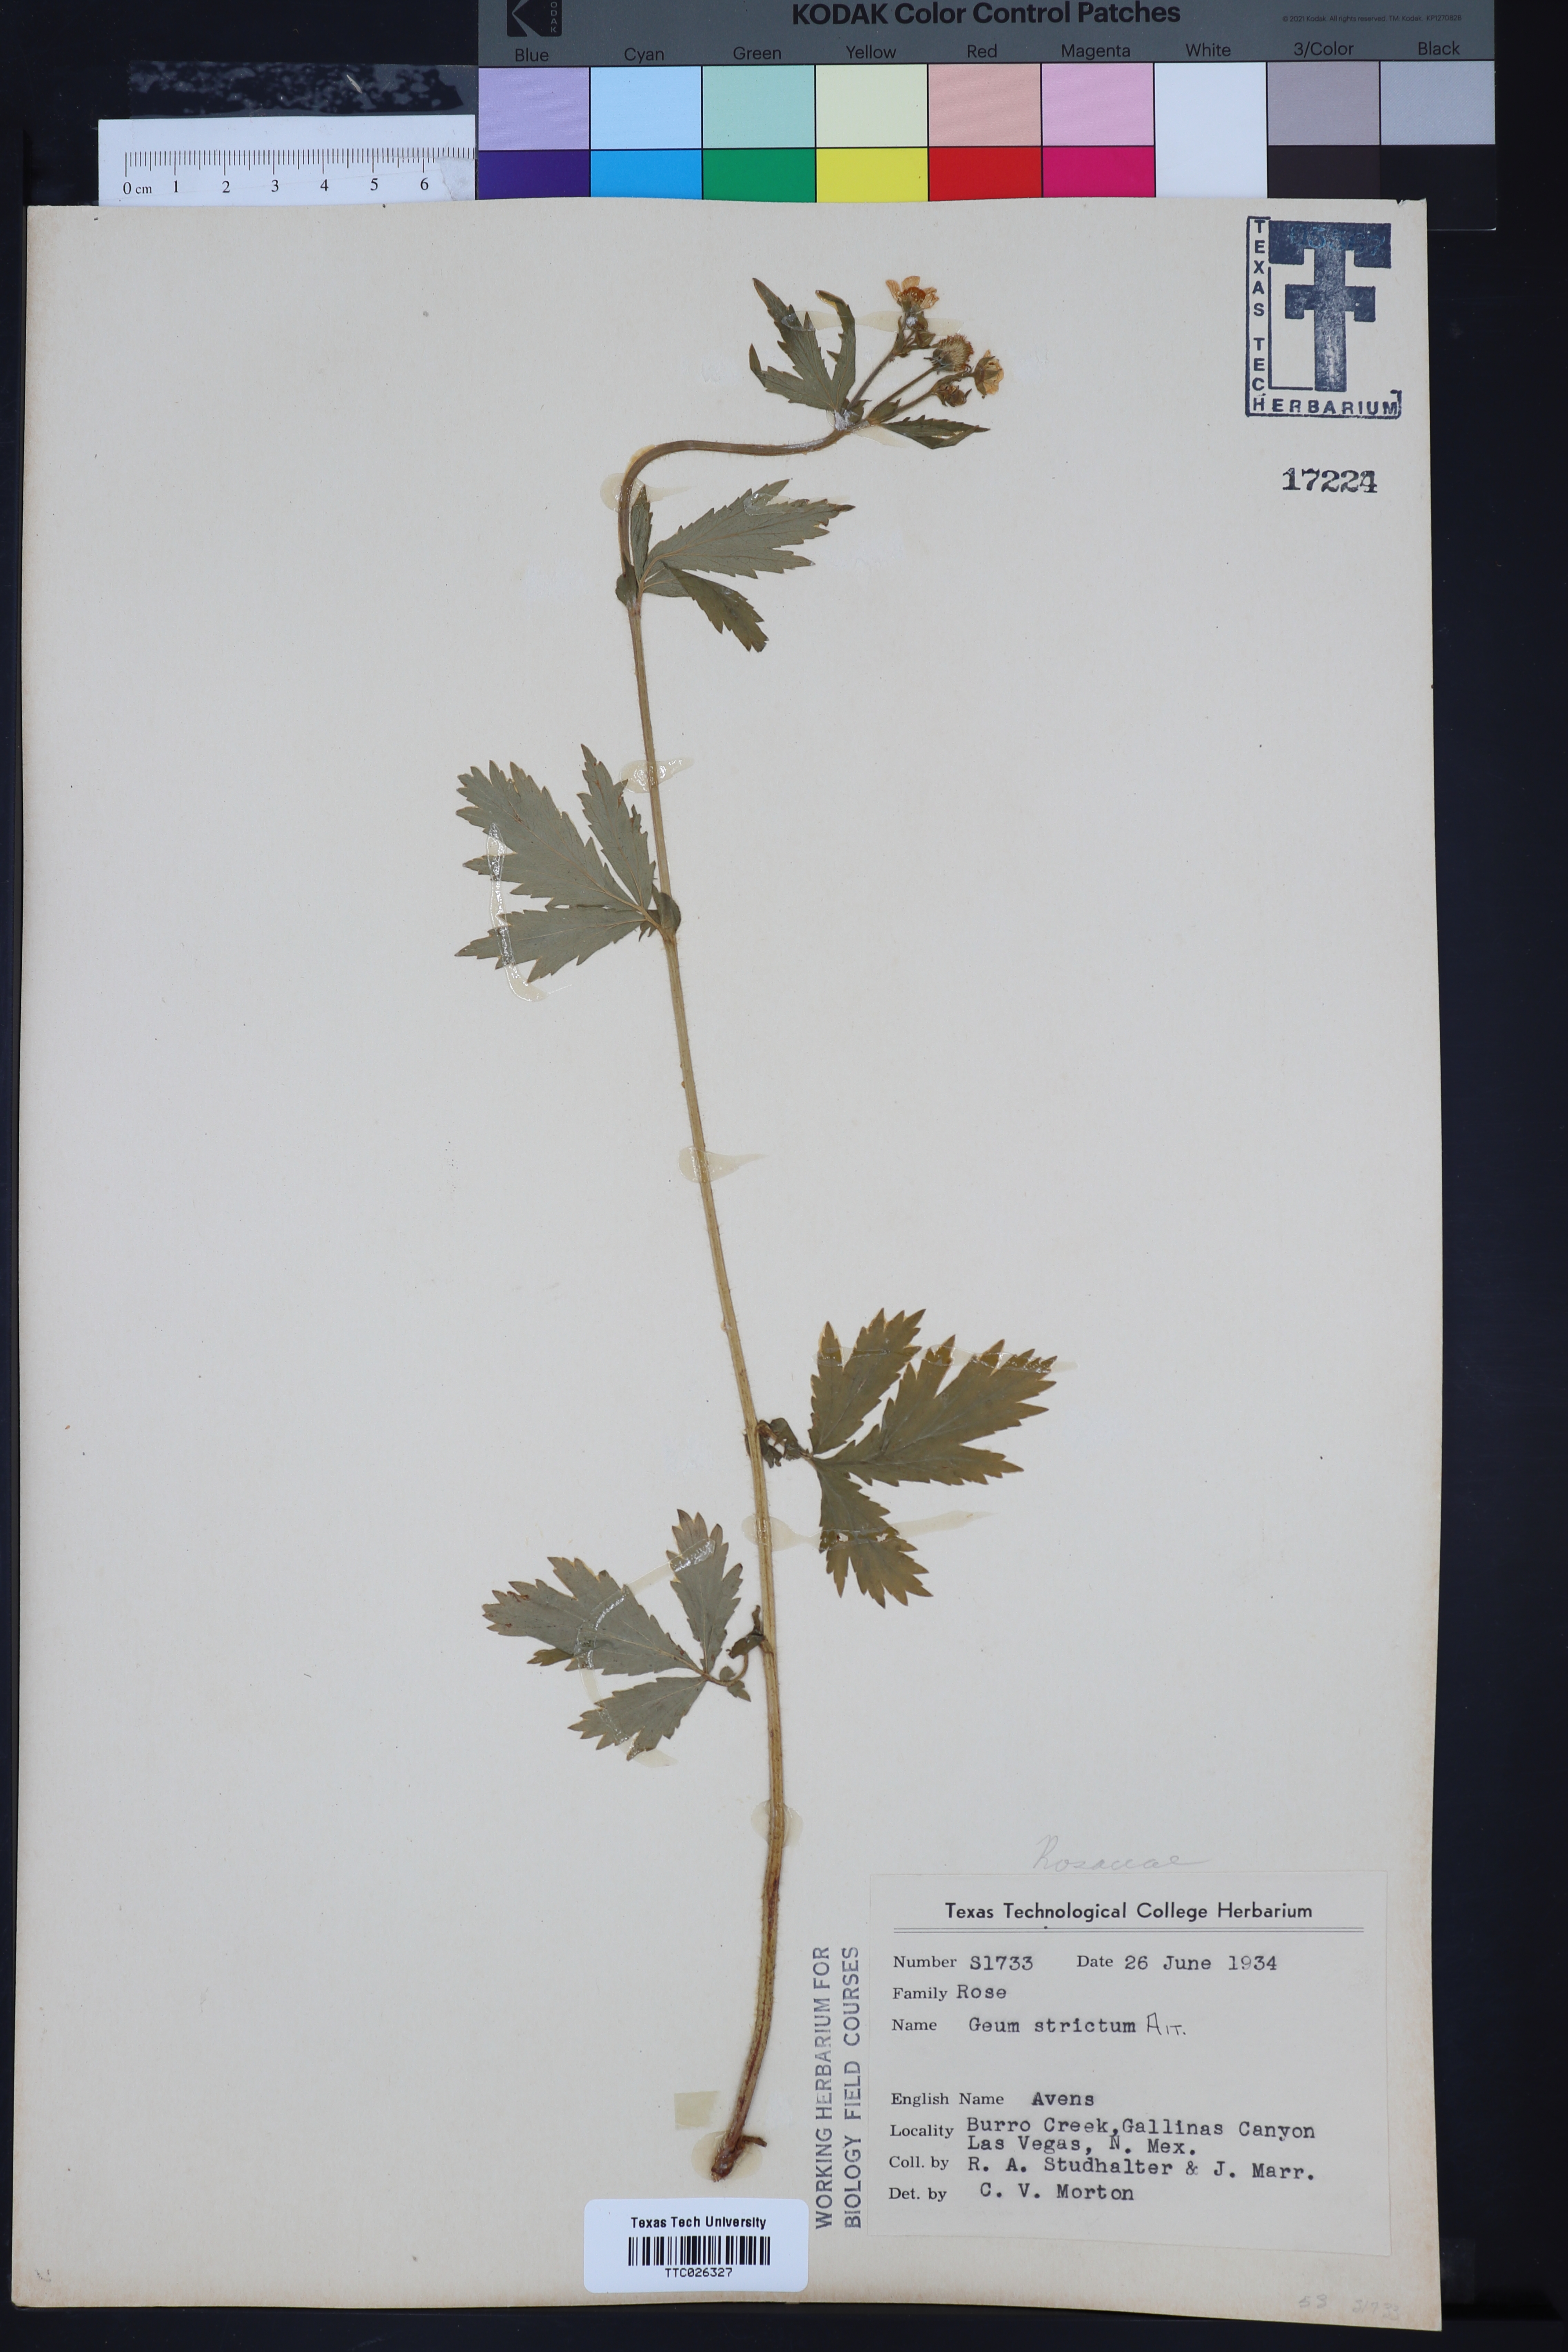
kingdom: Plantae
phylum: Tracheophyta
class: Magnoliopsida
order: Rosales
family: Rosaceae
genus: Geum
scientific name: Geum aleppicum
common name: Yellow avens
